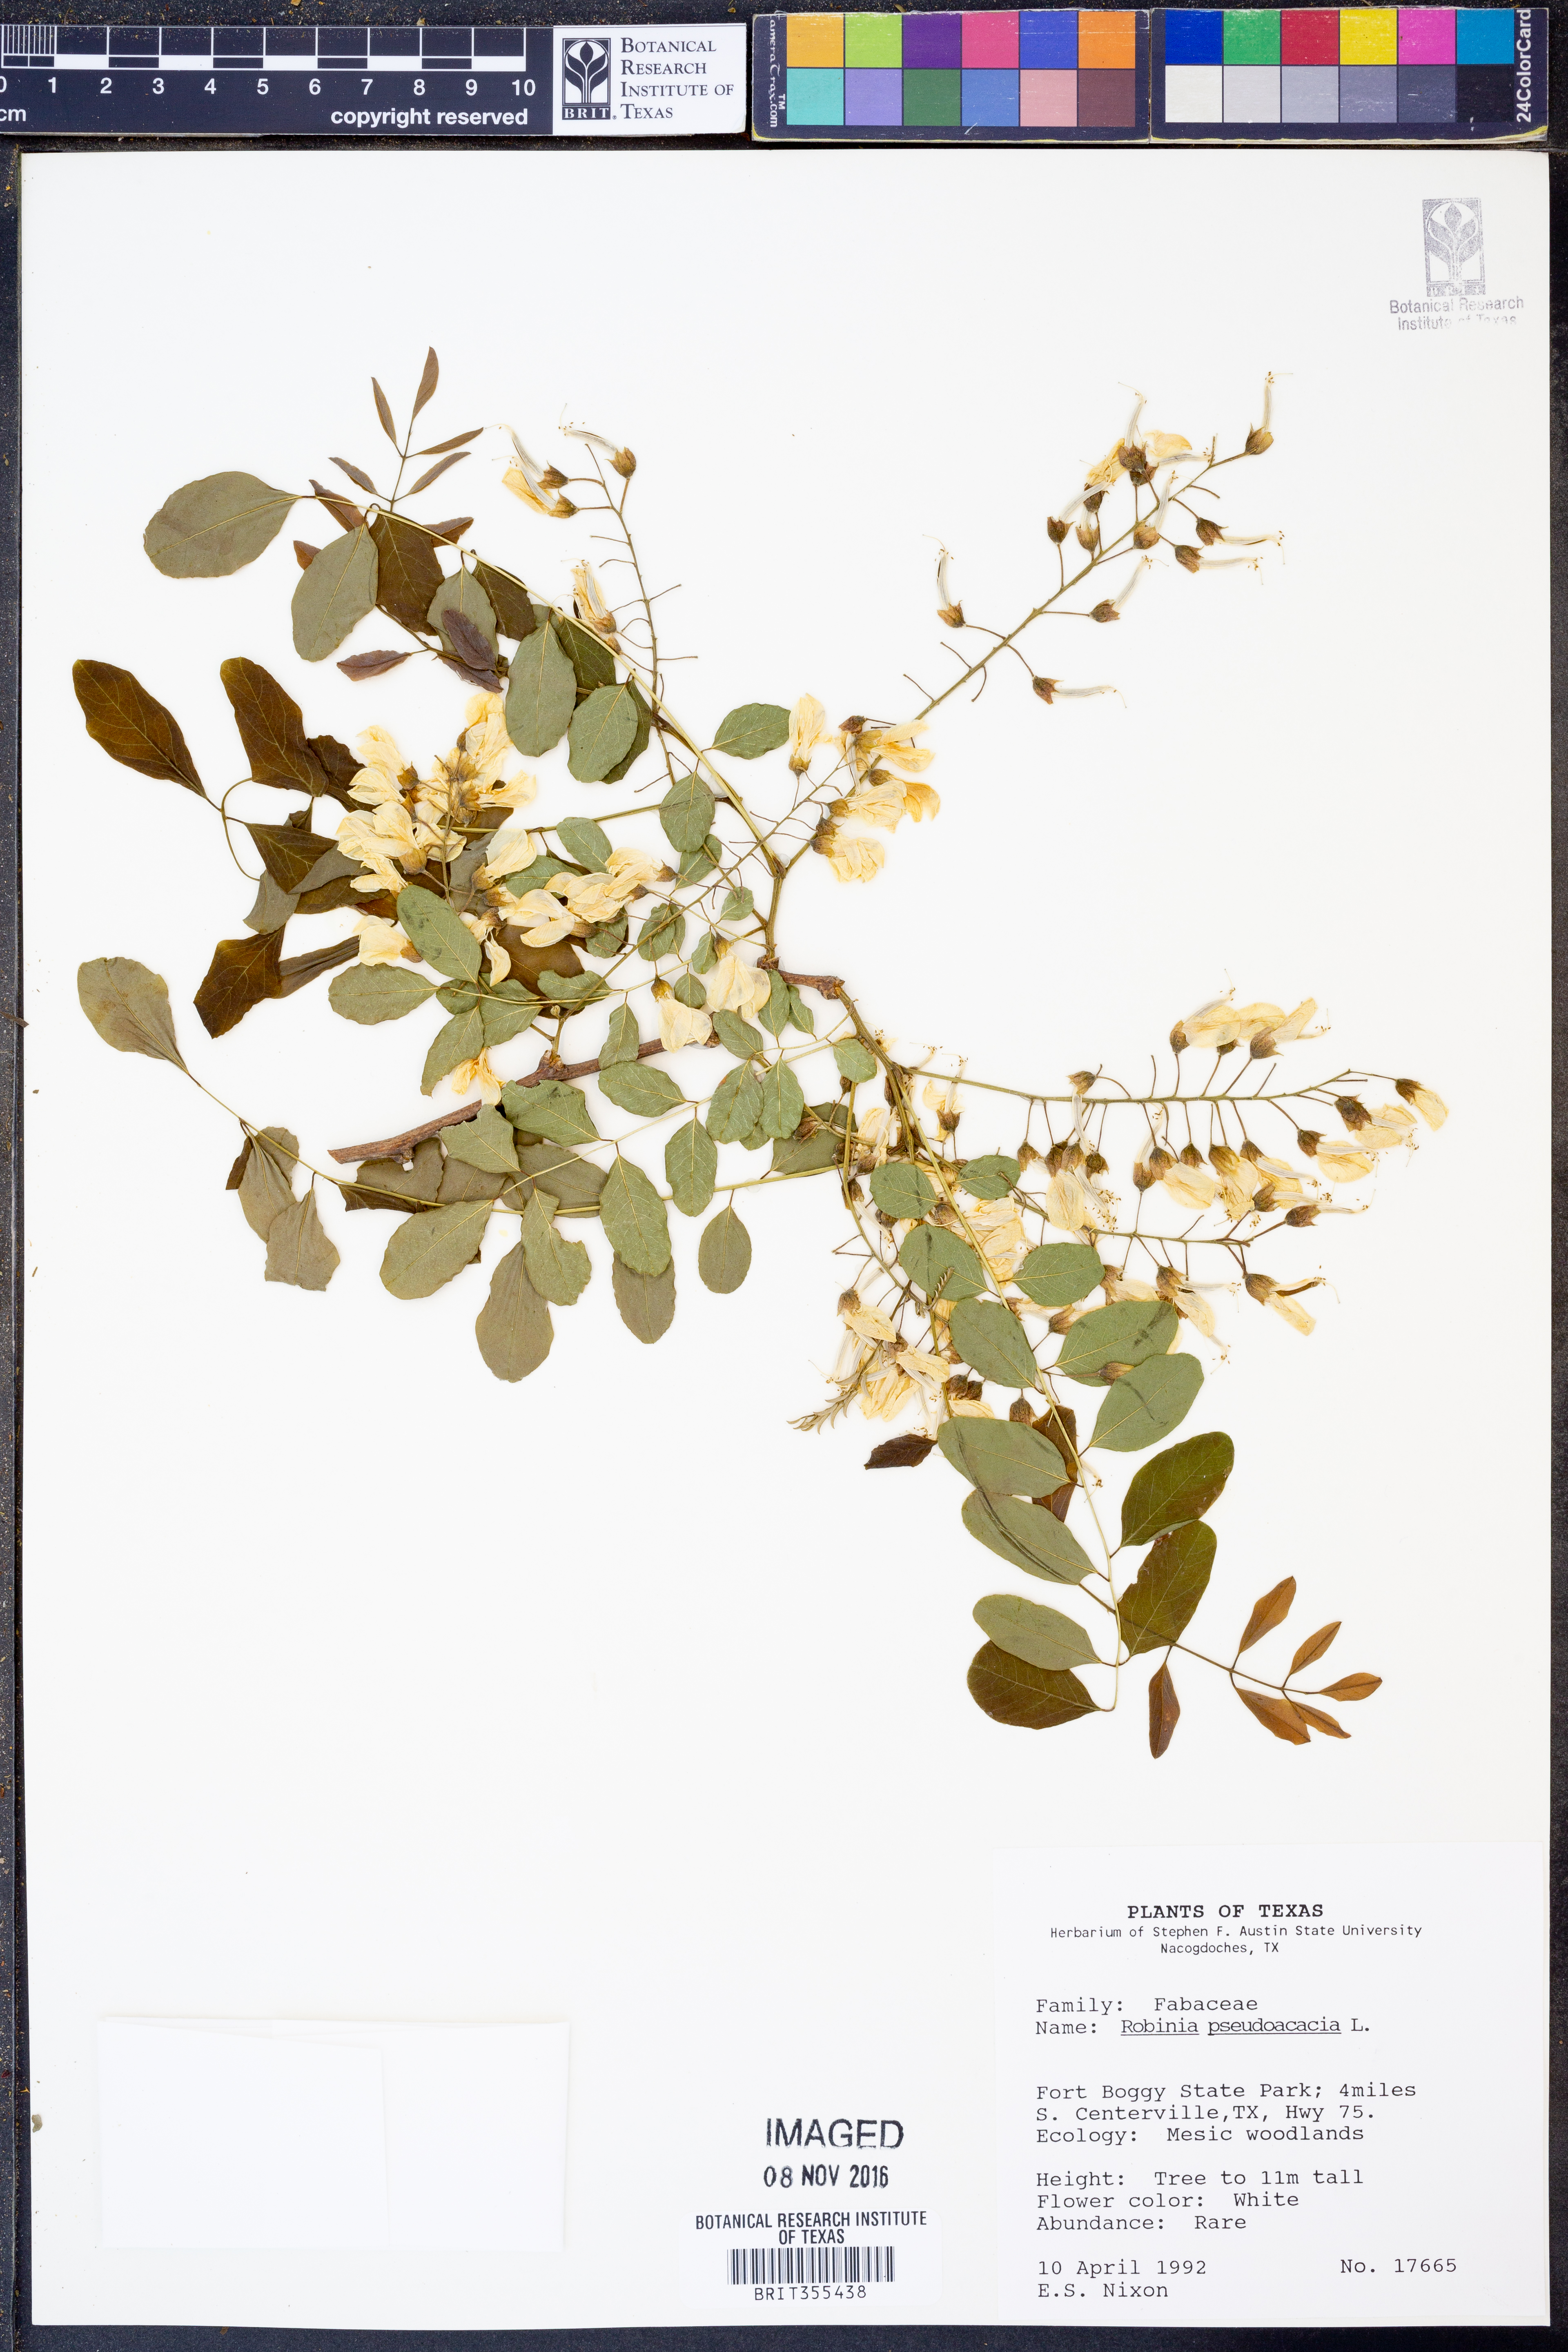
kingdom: Plantae
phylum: Tracheophyta
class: Magnoliopsida
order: Fabales
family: Fabaceae
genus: Robinia
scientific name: Robinia pseudoacacia
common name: Black locust
